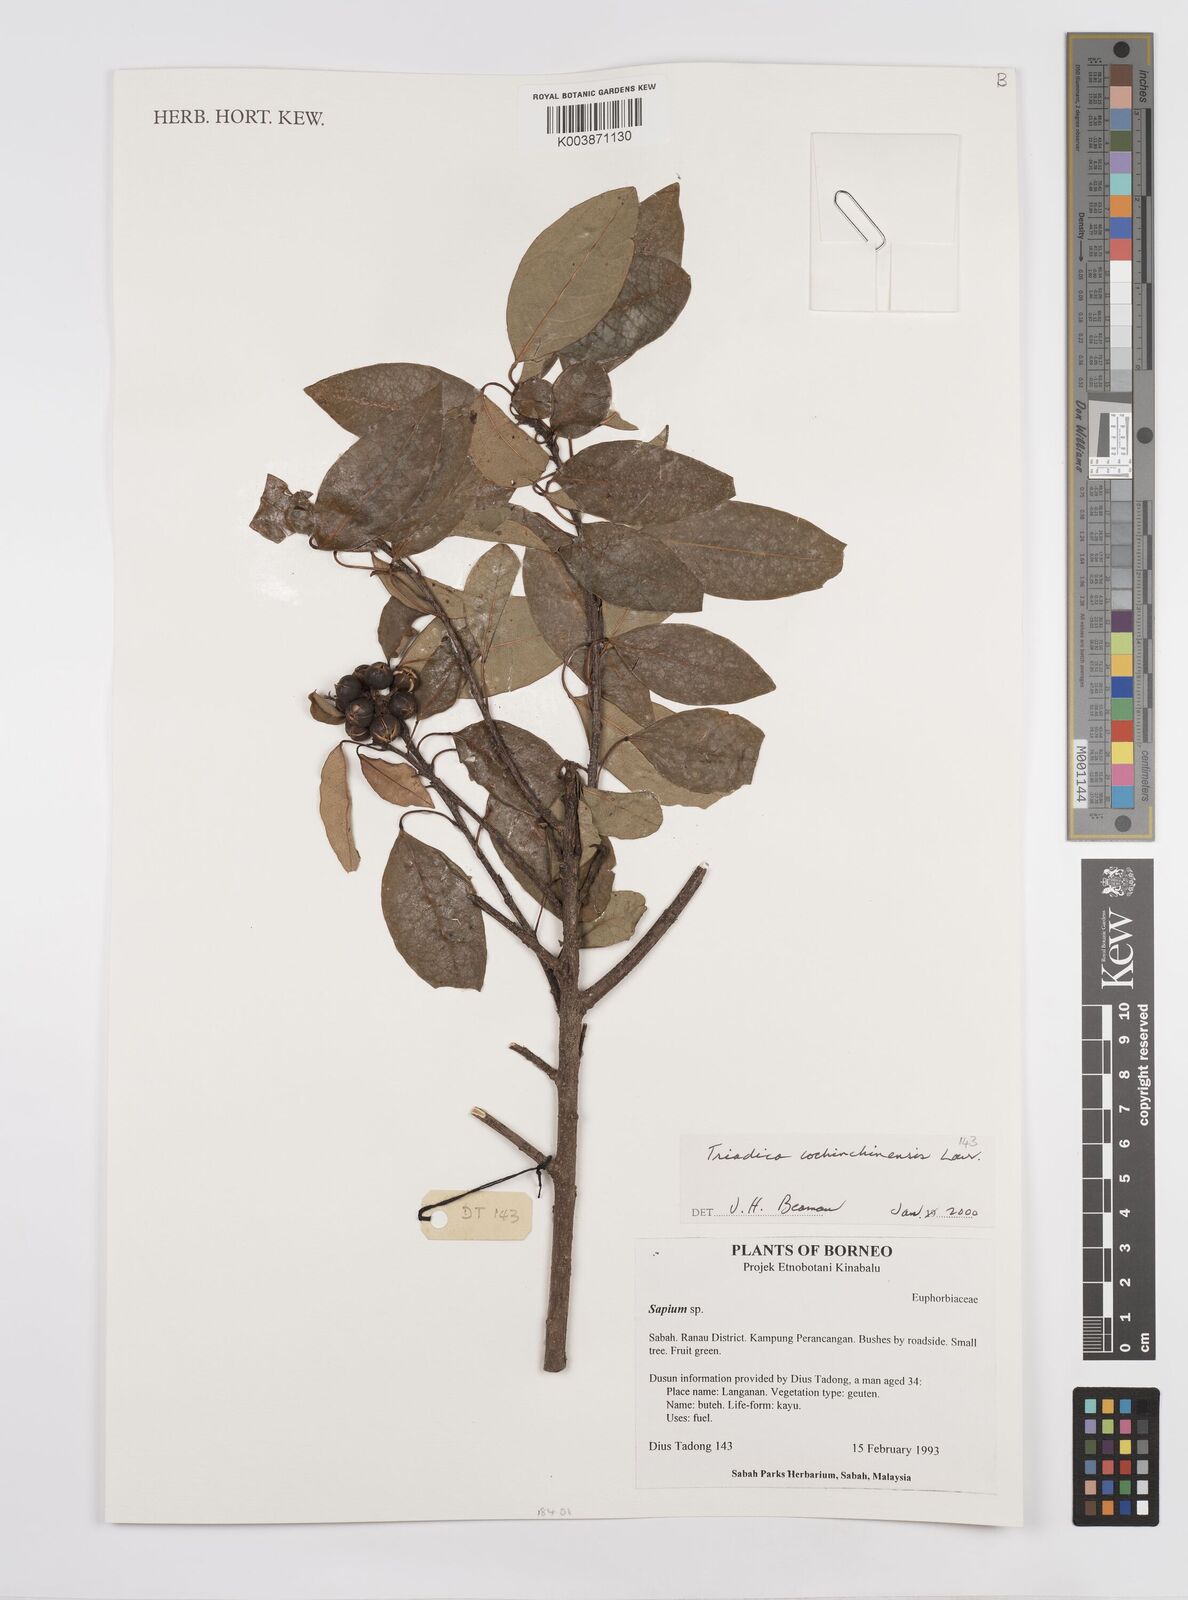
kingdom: Plantae
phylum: Tracheophyta
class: Magnoliopsida
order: Malpighiales
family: Euphorbiaceae
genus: Triadica
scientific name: Triadica cochinchinensis
